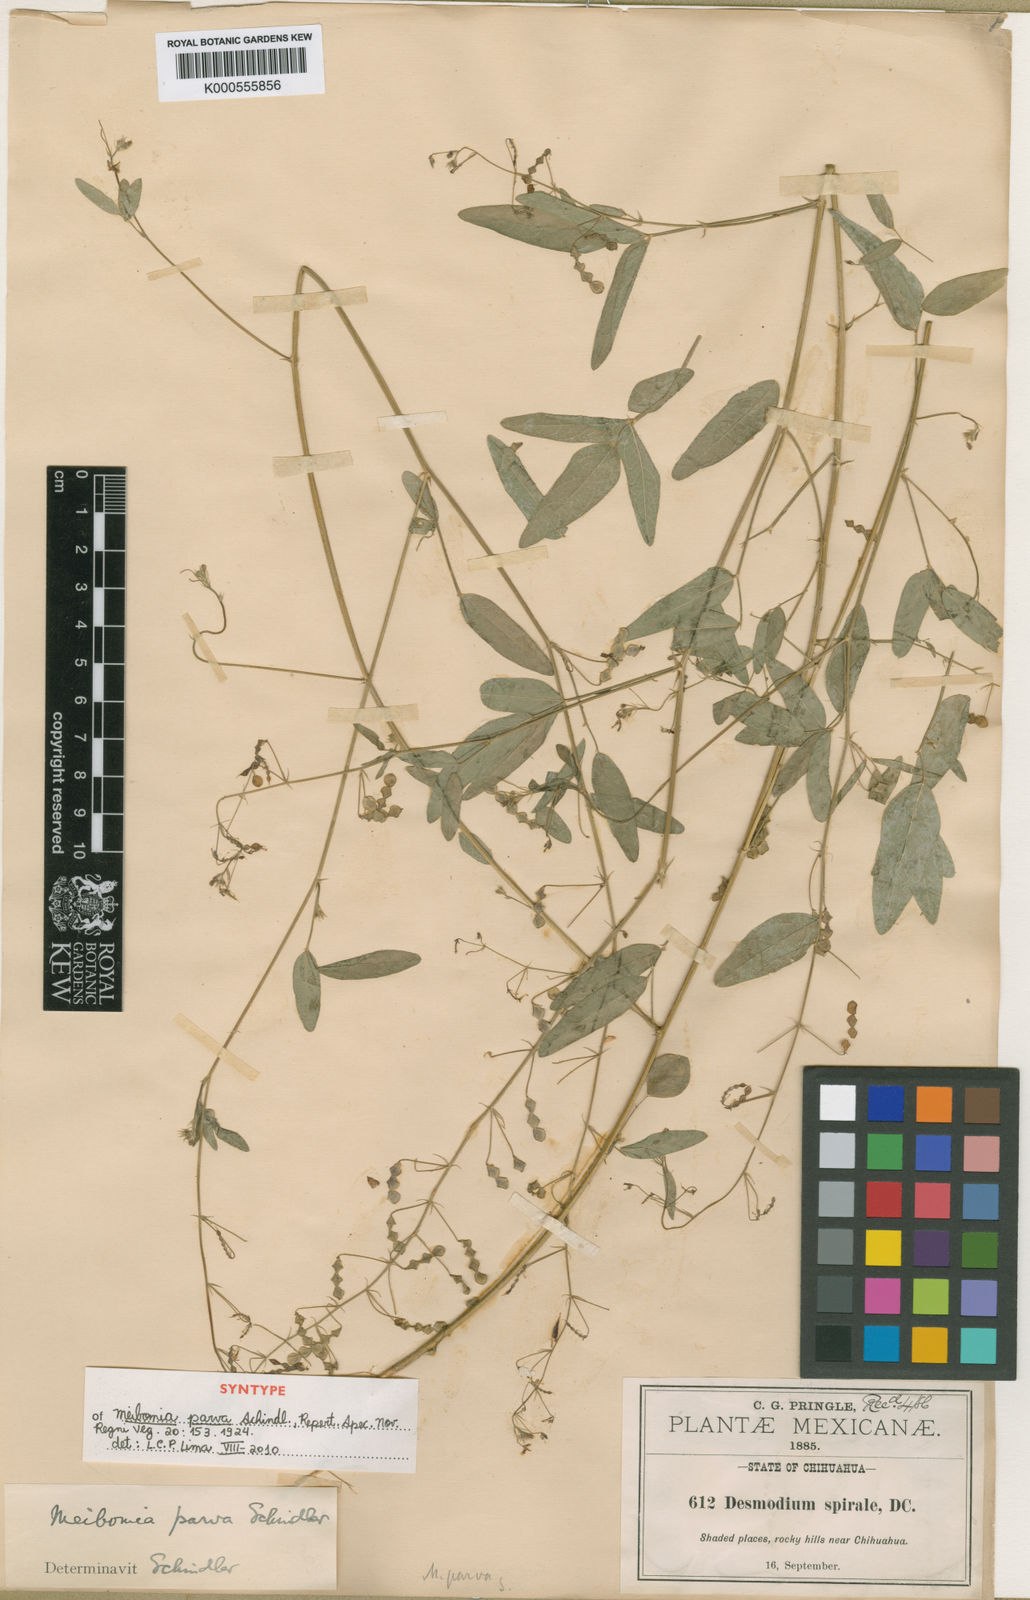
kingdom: Plantae
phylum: Tracheophyta
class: Magnoliopsida
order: Fabales
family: Fabaceae
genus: Desmodium
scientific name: Desmodium procumbens
